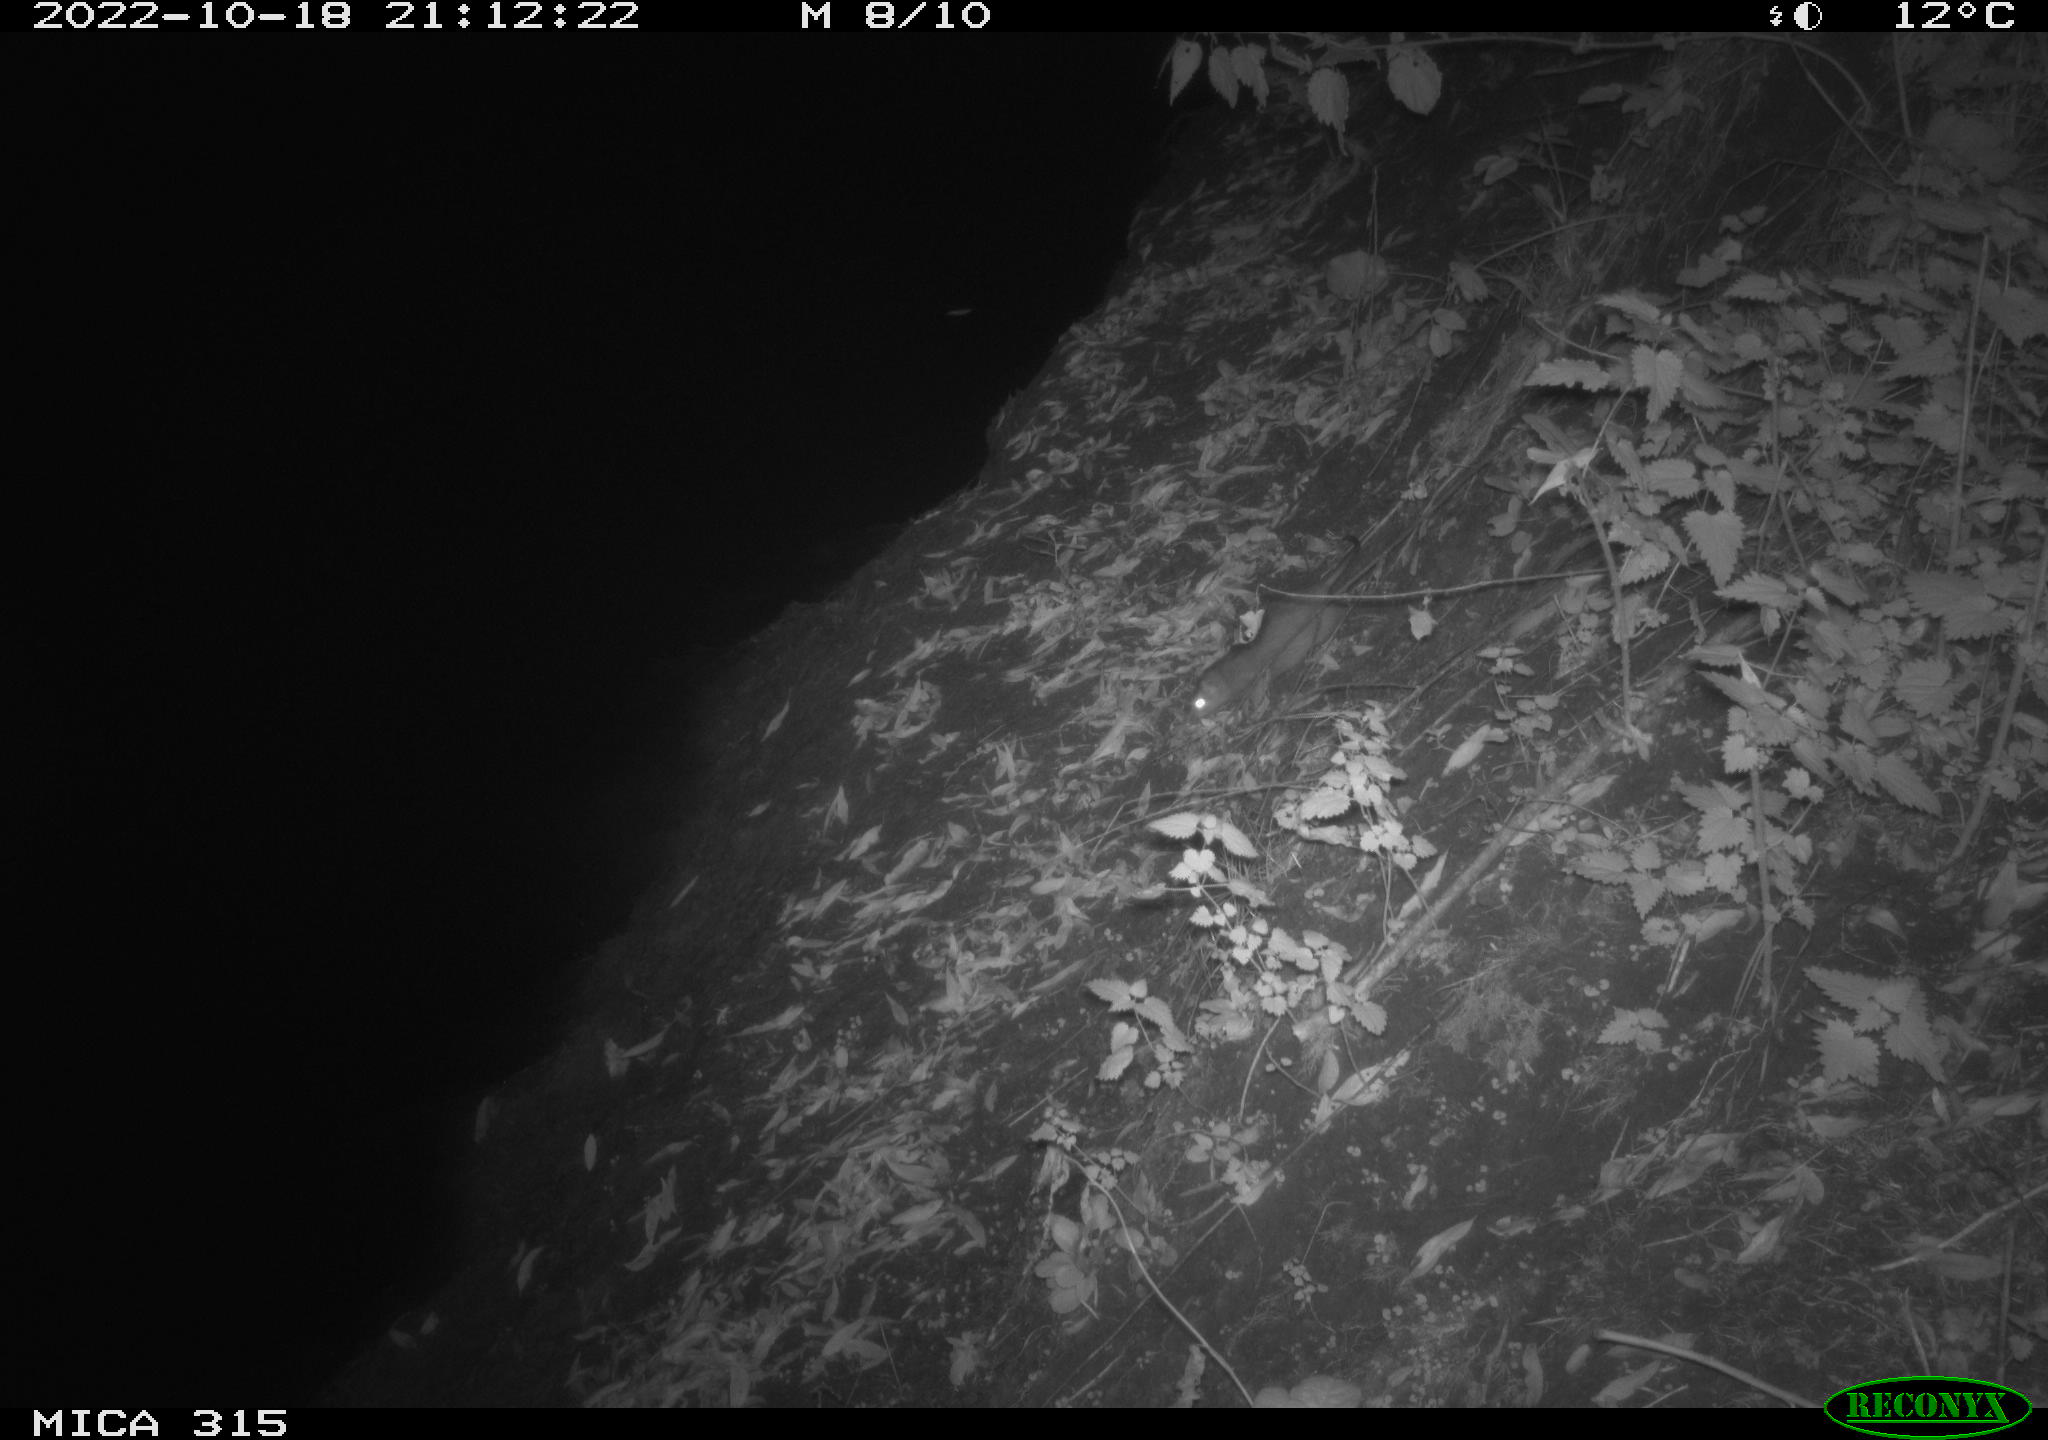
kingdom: Animalia
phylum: Chordata
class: Mammalia
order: Rodentia
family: Muridae
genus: Rattus
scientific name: Rattus norvegicus
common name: Brown rat
